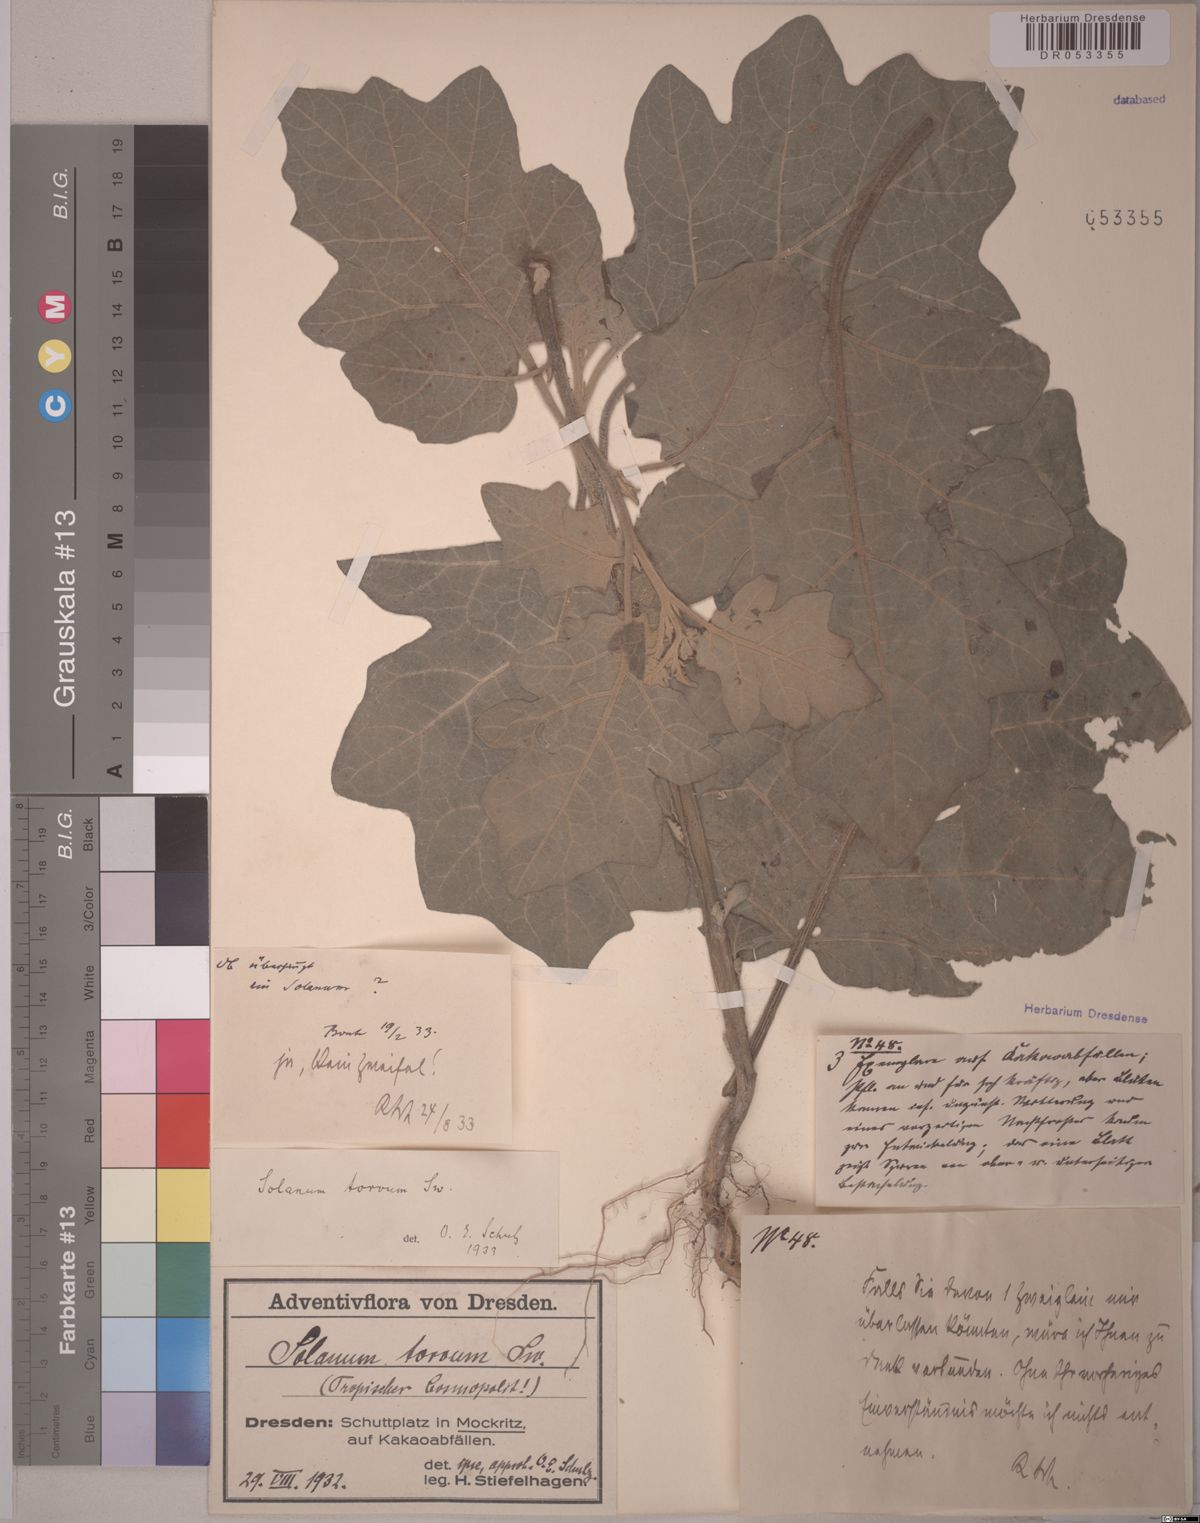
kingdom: Plantae
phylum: Tracheophyta
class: Magnoliopsida
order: Solanales
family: Solanaceae
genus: Solanum
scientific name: Solanum torvum
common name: Turkey berry
